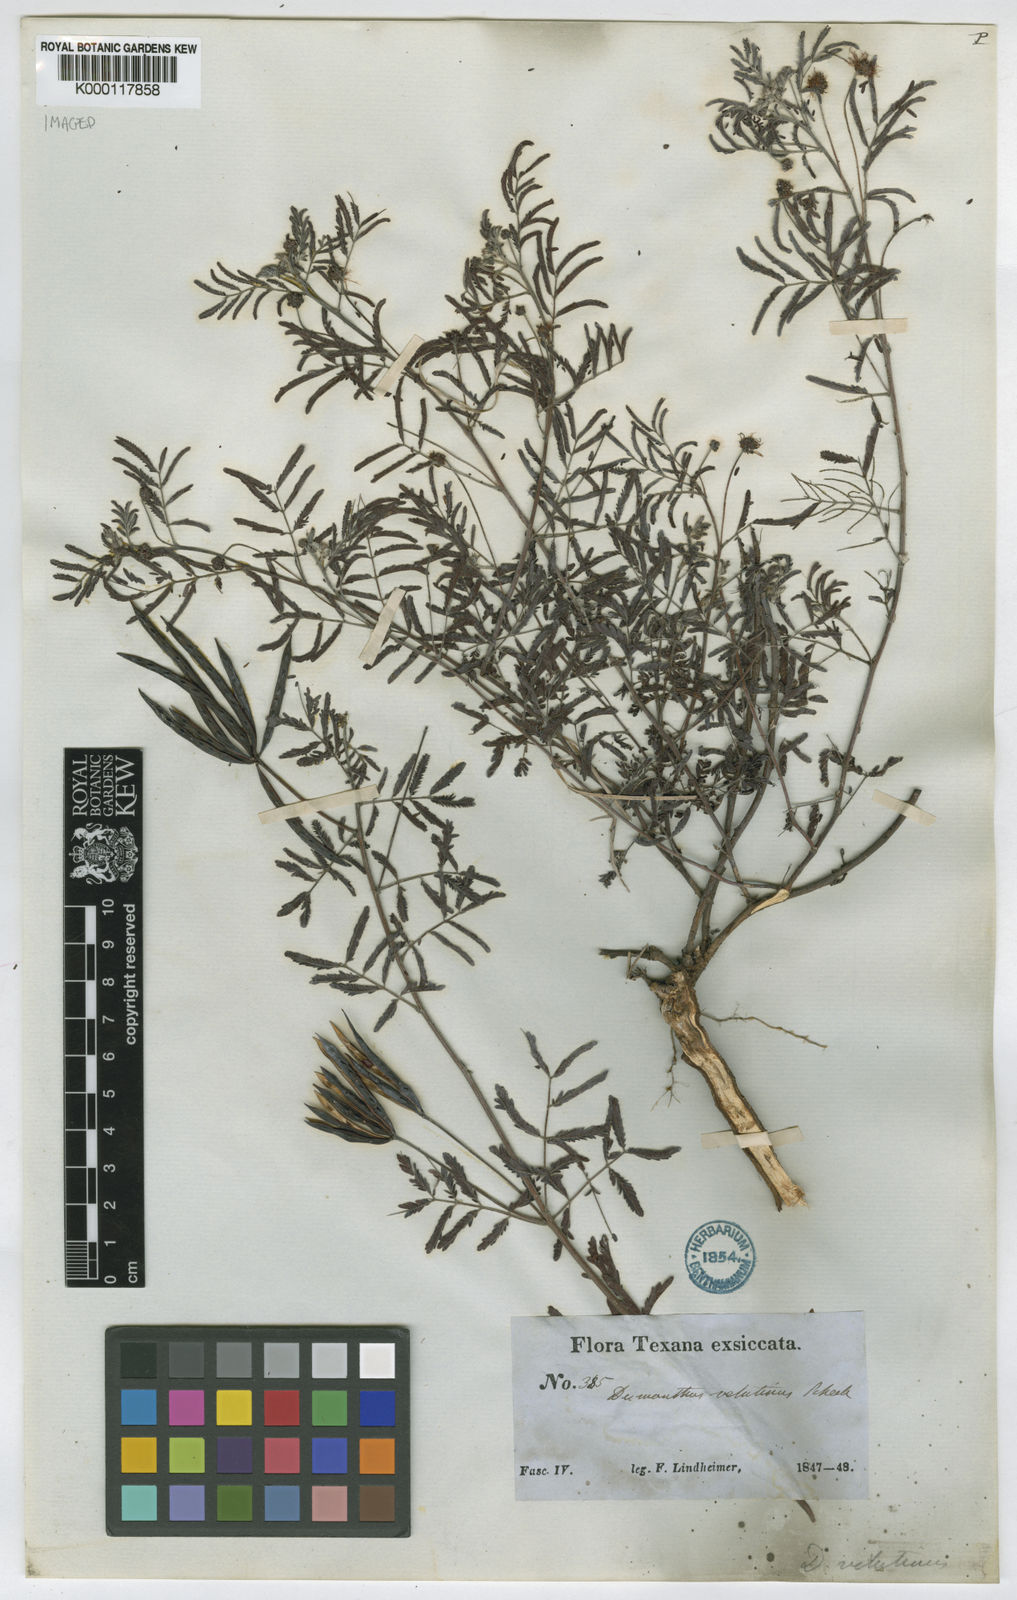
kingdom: Plantae
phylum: Tracheophyta
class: Magnoliopsida
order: Fabales
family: Fabaceae
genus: Desmanthus
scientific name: Desmanthus velutinus
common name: Velvet bundle-flower
